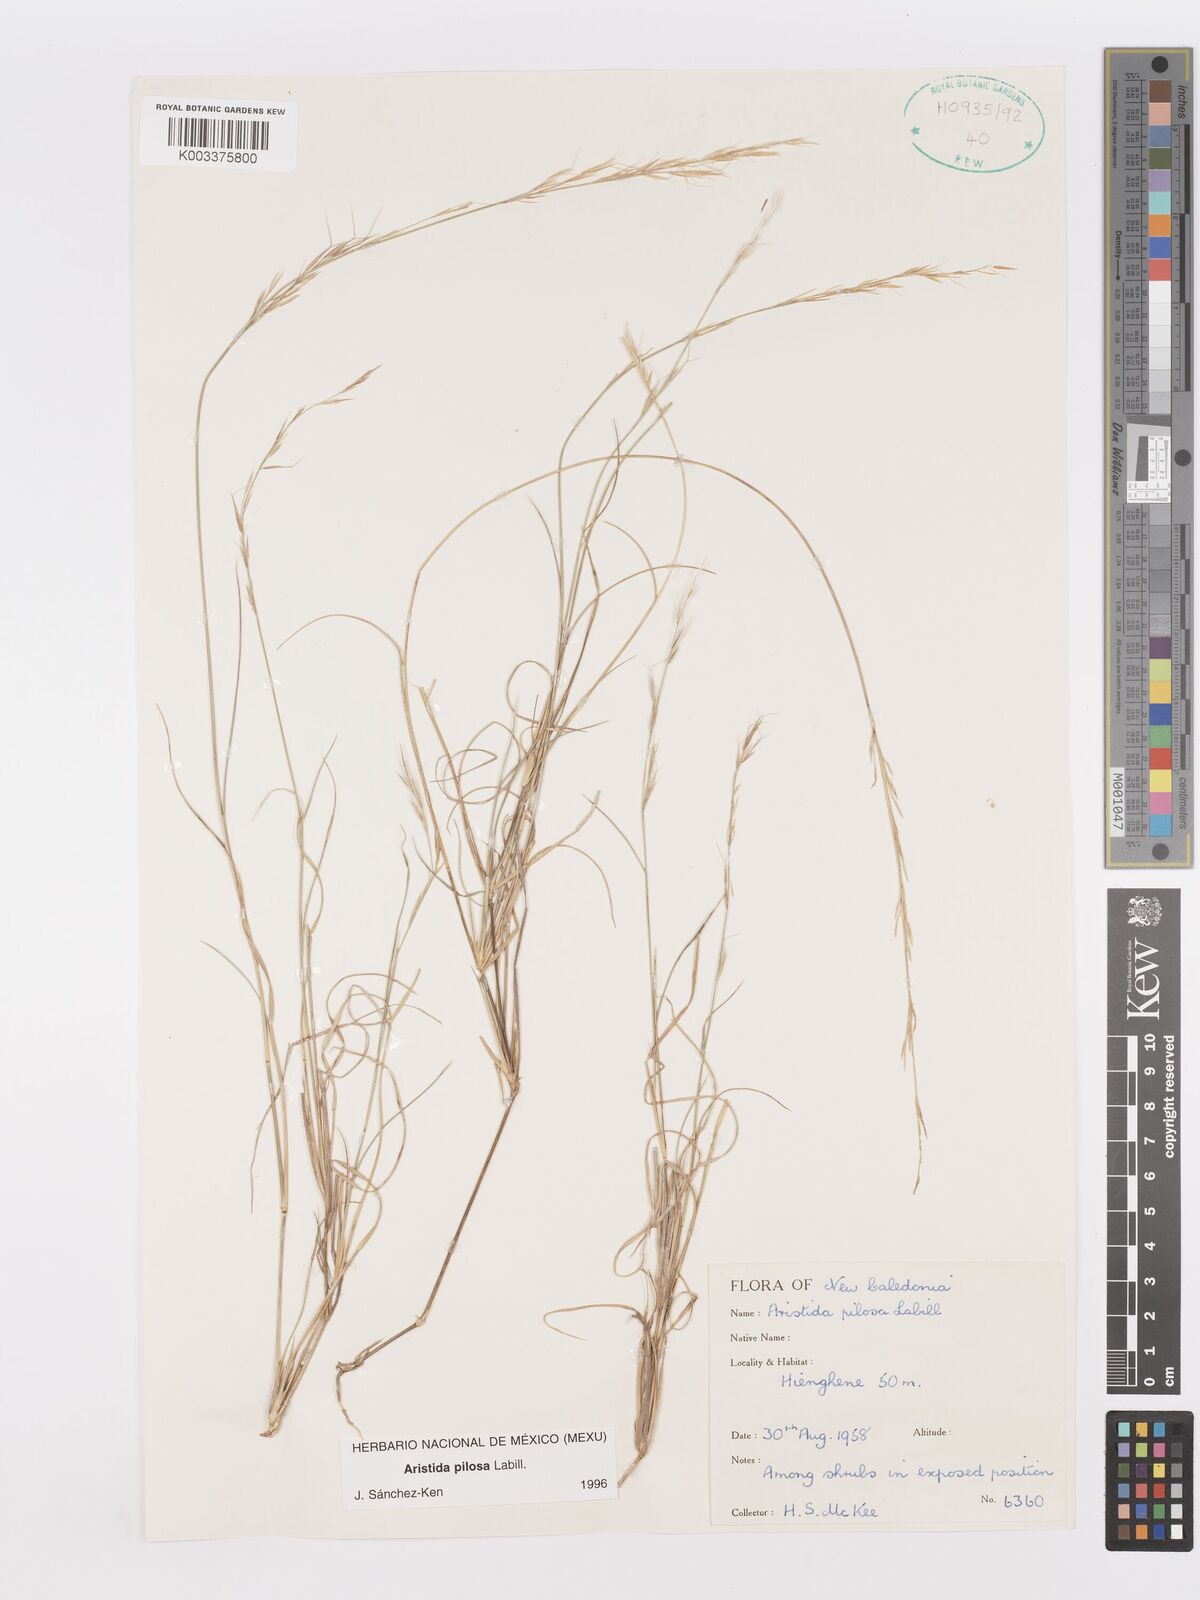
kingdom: Plantae
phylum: Tracheophyta
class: Liliopsida
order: Poales
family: Poaceae
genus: Aristida
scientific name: Aristida pilosa
